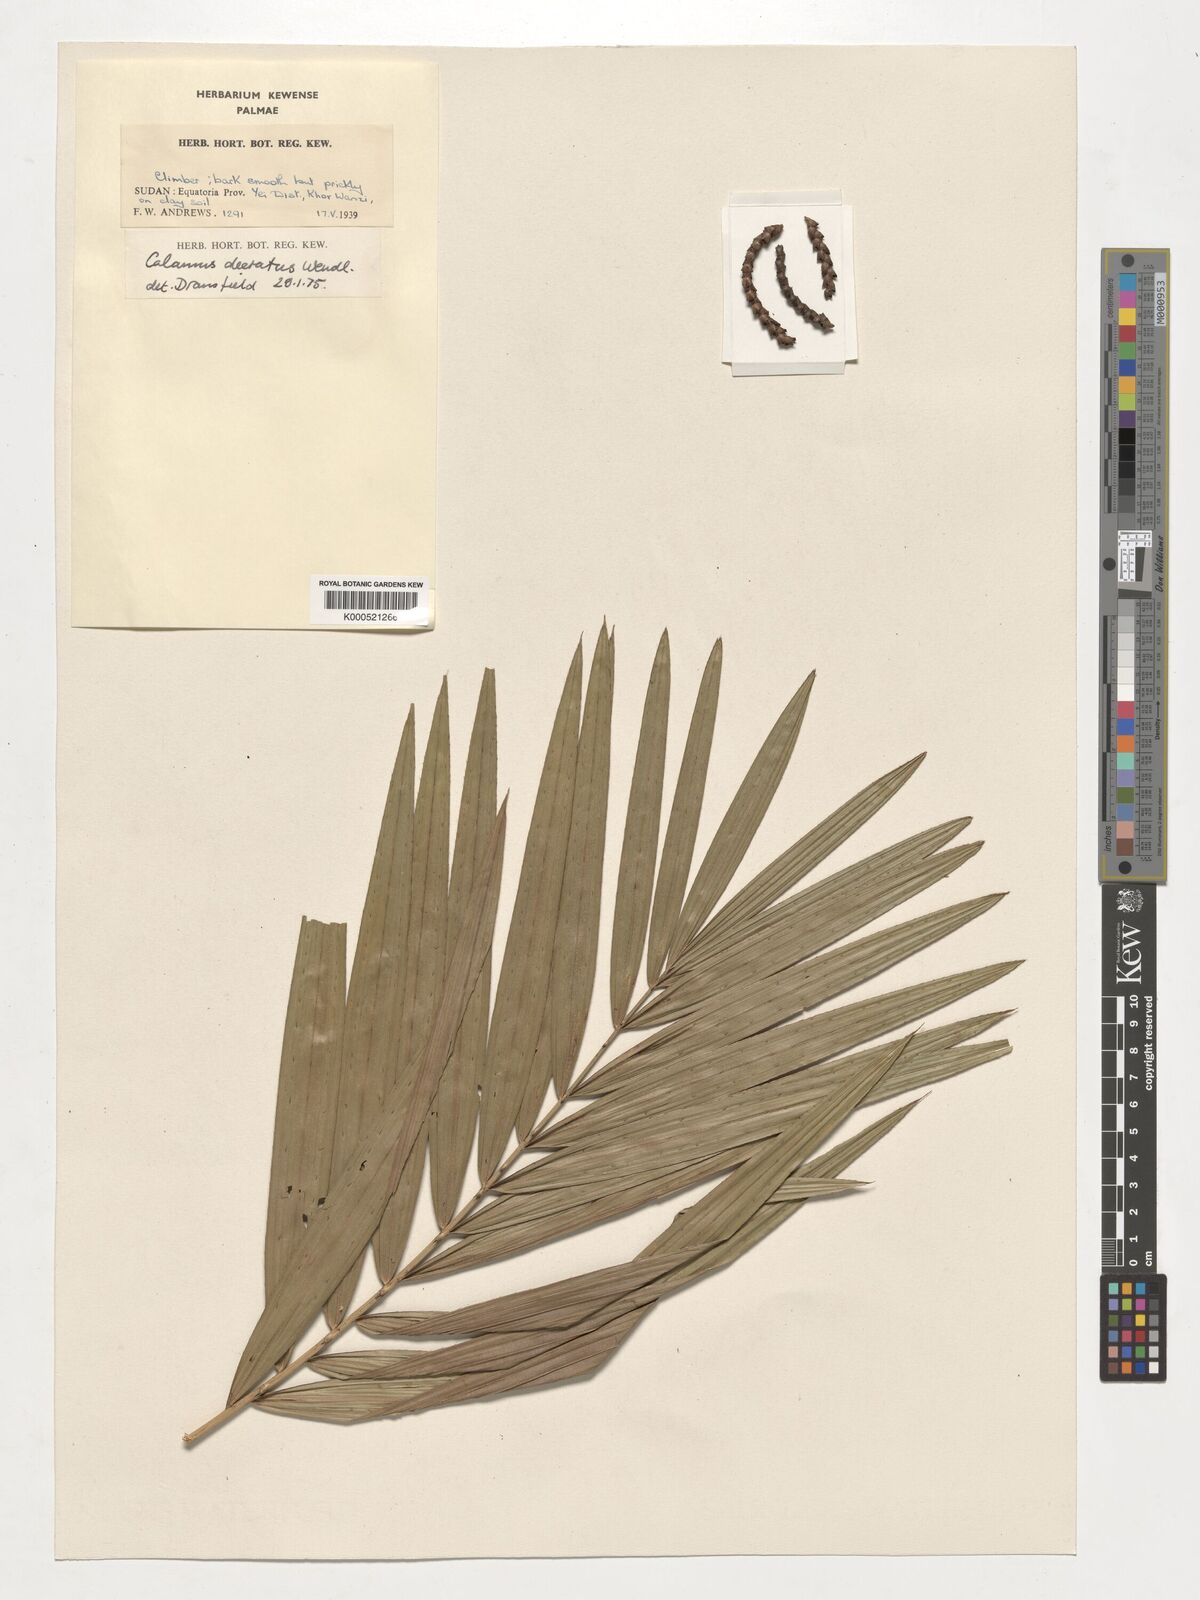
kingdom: Plantae
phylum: Tracheophyta
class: Liliopsida
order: Arecales
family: Arecaceae
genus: Calamus
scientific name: Calamus deerratus
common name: Rattan
